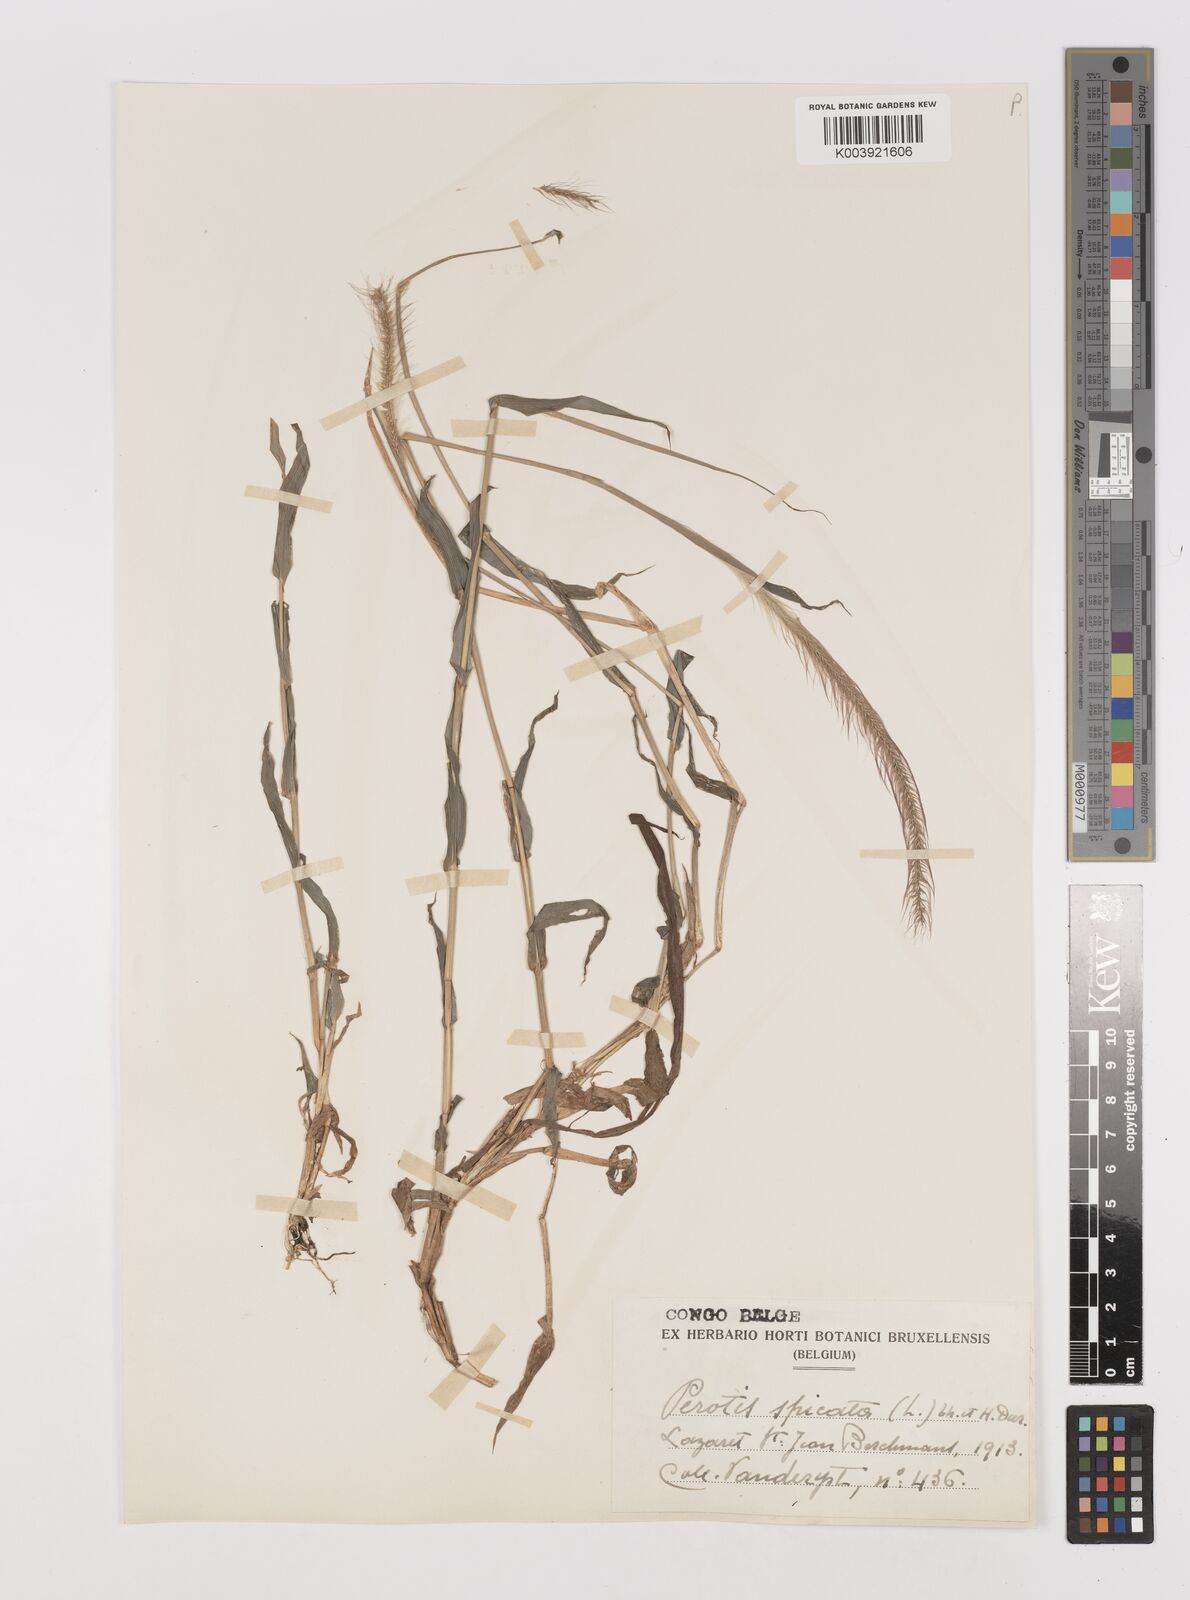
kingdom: Plantae
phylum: Tracheophyta
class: Liliopsida
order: Poales
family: Poaceae
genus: Perotis
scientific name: Perotis patens
